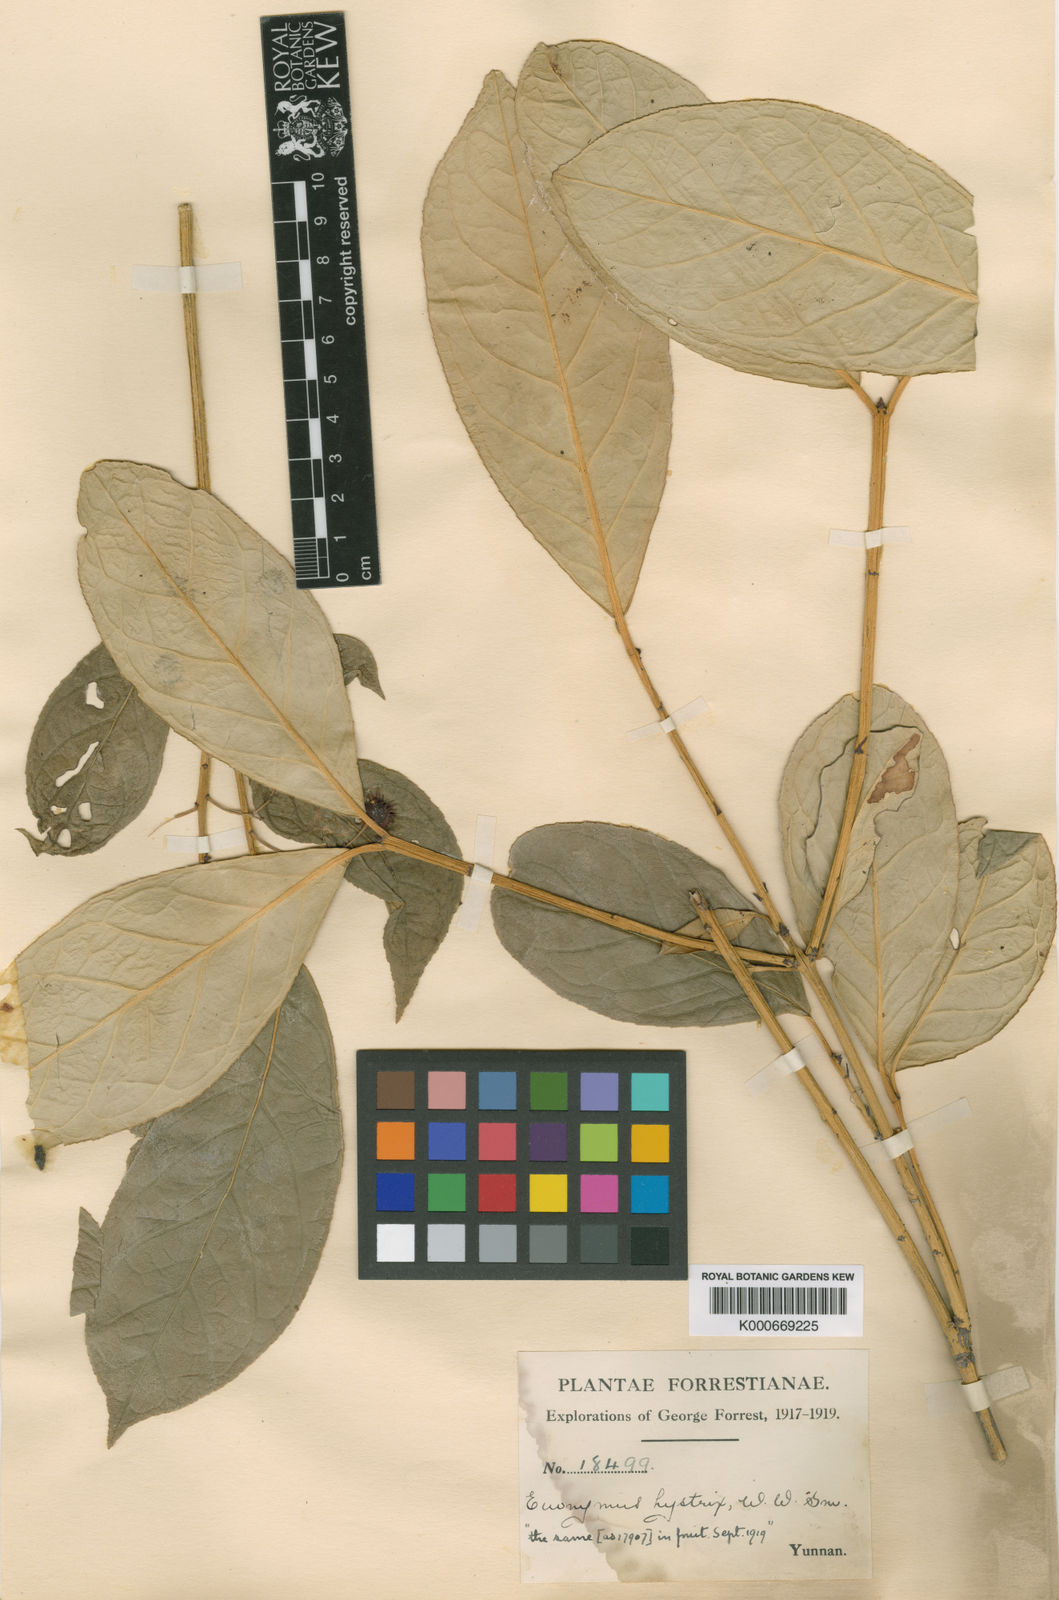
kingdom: Plantae
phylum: Tracheophyta
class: Magnoliopsida
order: Celastrales
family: Celastraceae
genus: Euonymus
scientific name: Euonymus balansae
